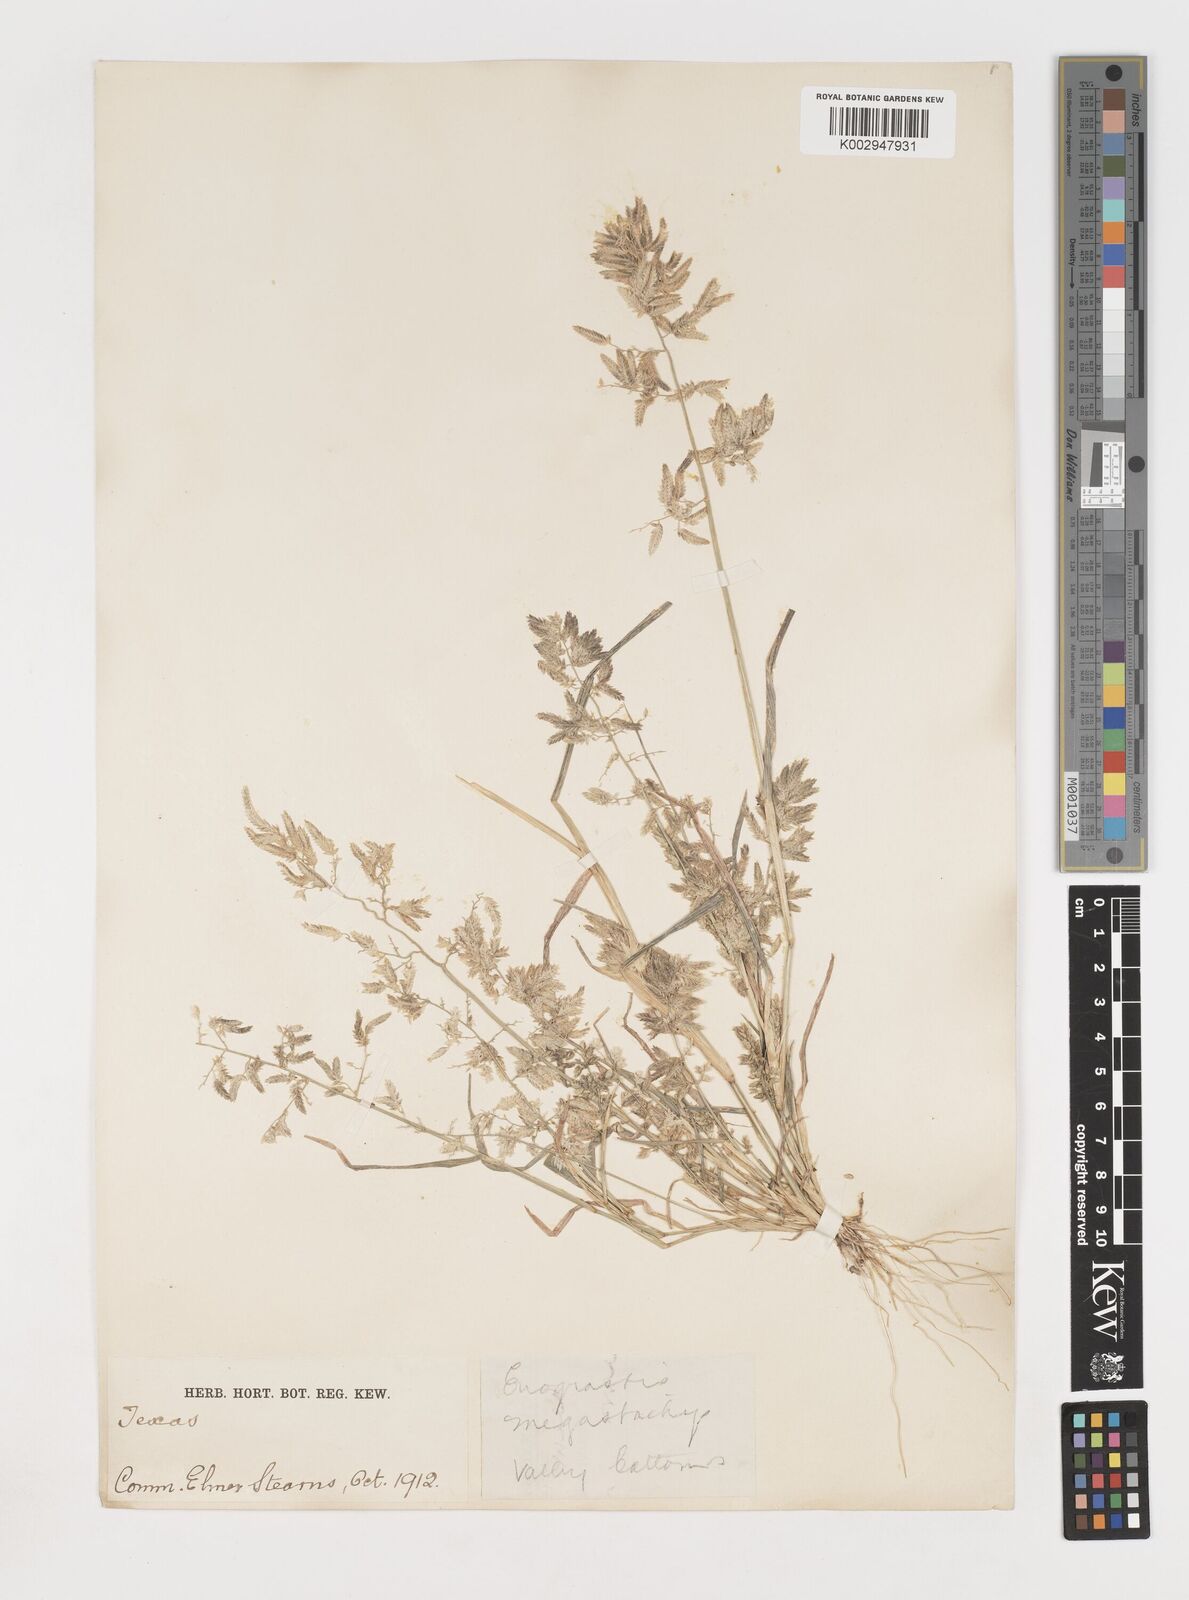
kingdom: Plantae
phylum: Tracheophyta
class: Liliopsida
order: Poales
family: Poaceae
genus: Eragrostis
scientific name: Eragrostis
